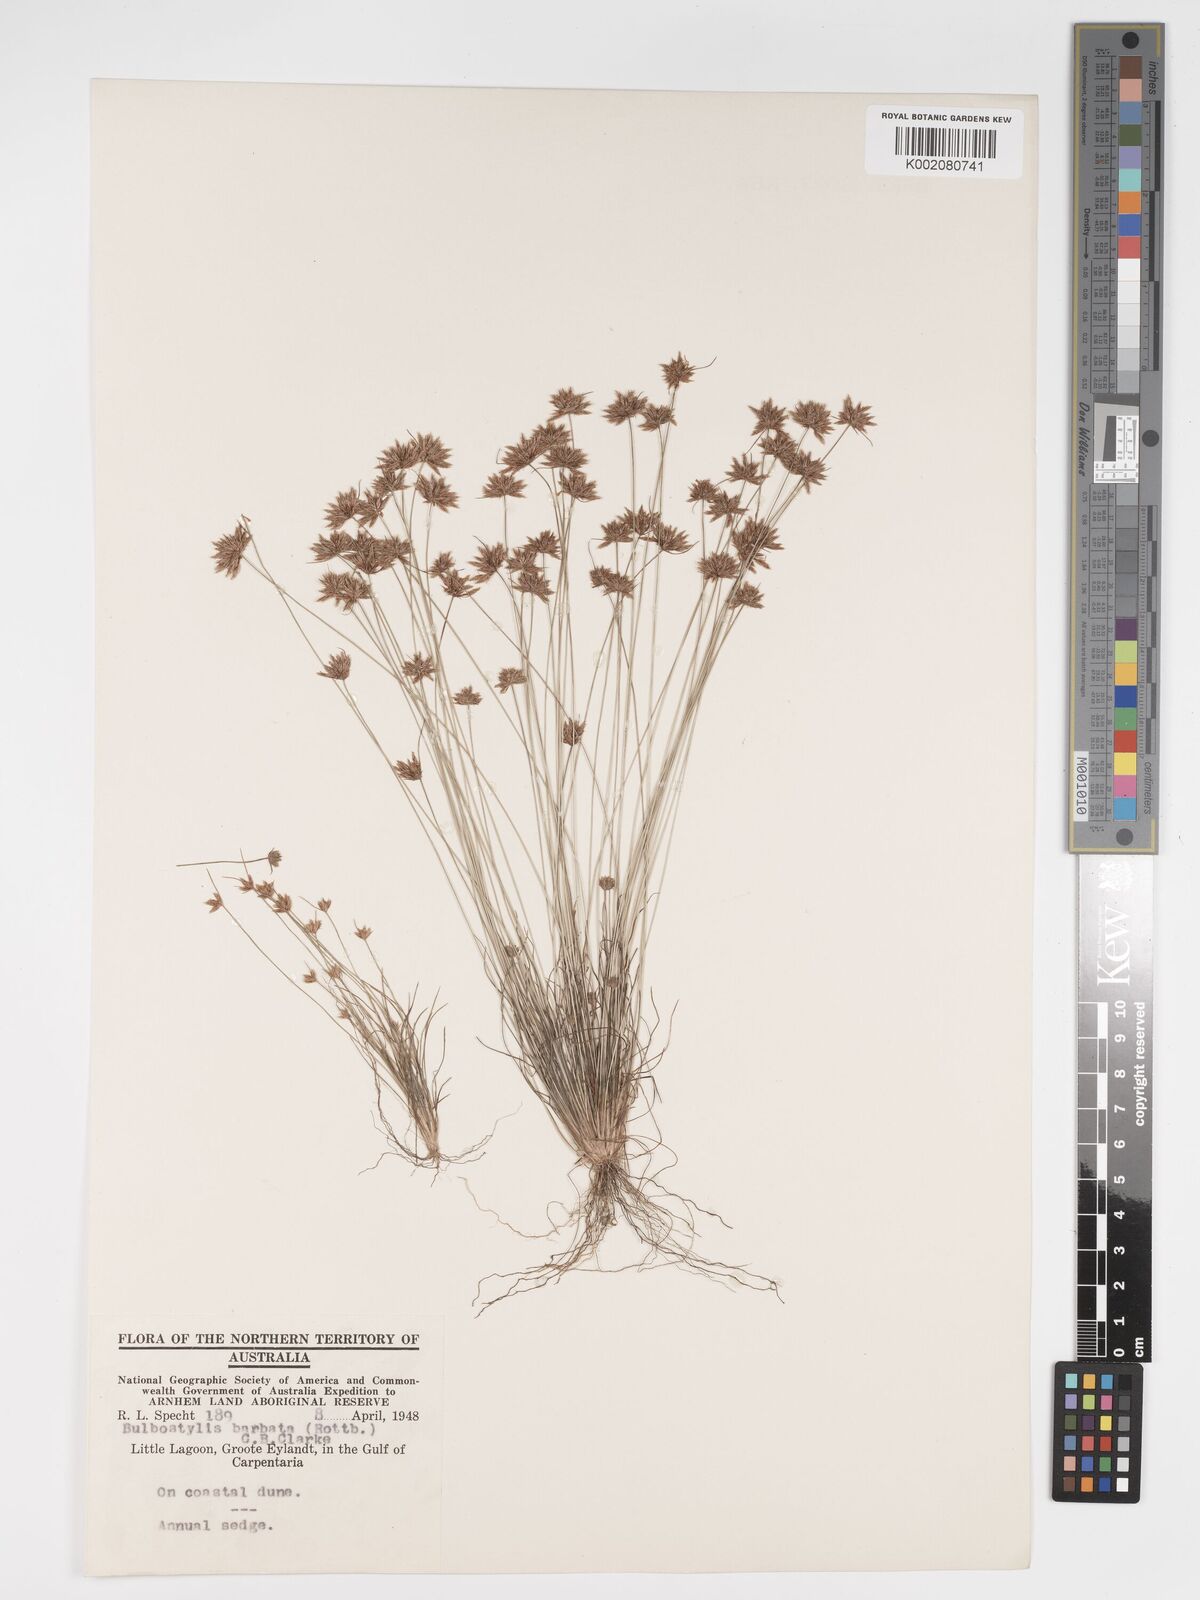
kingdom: Plantae
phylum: Tracheophyta
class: Liliopsida
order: Poales
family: Cyperaceae
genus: Bulbostylis
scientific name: Bulbostylis barbata
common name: Watergrass
